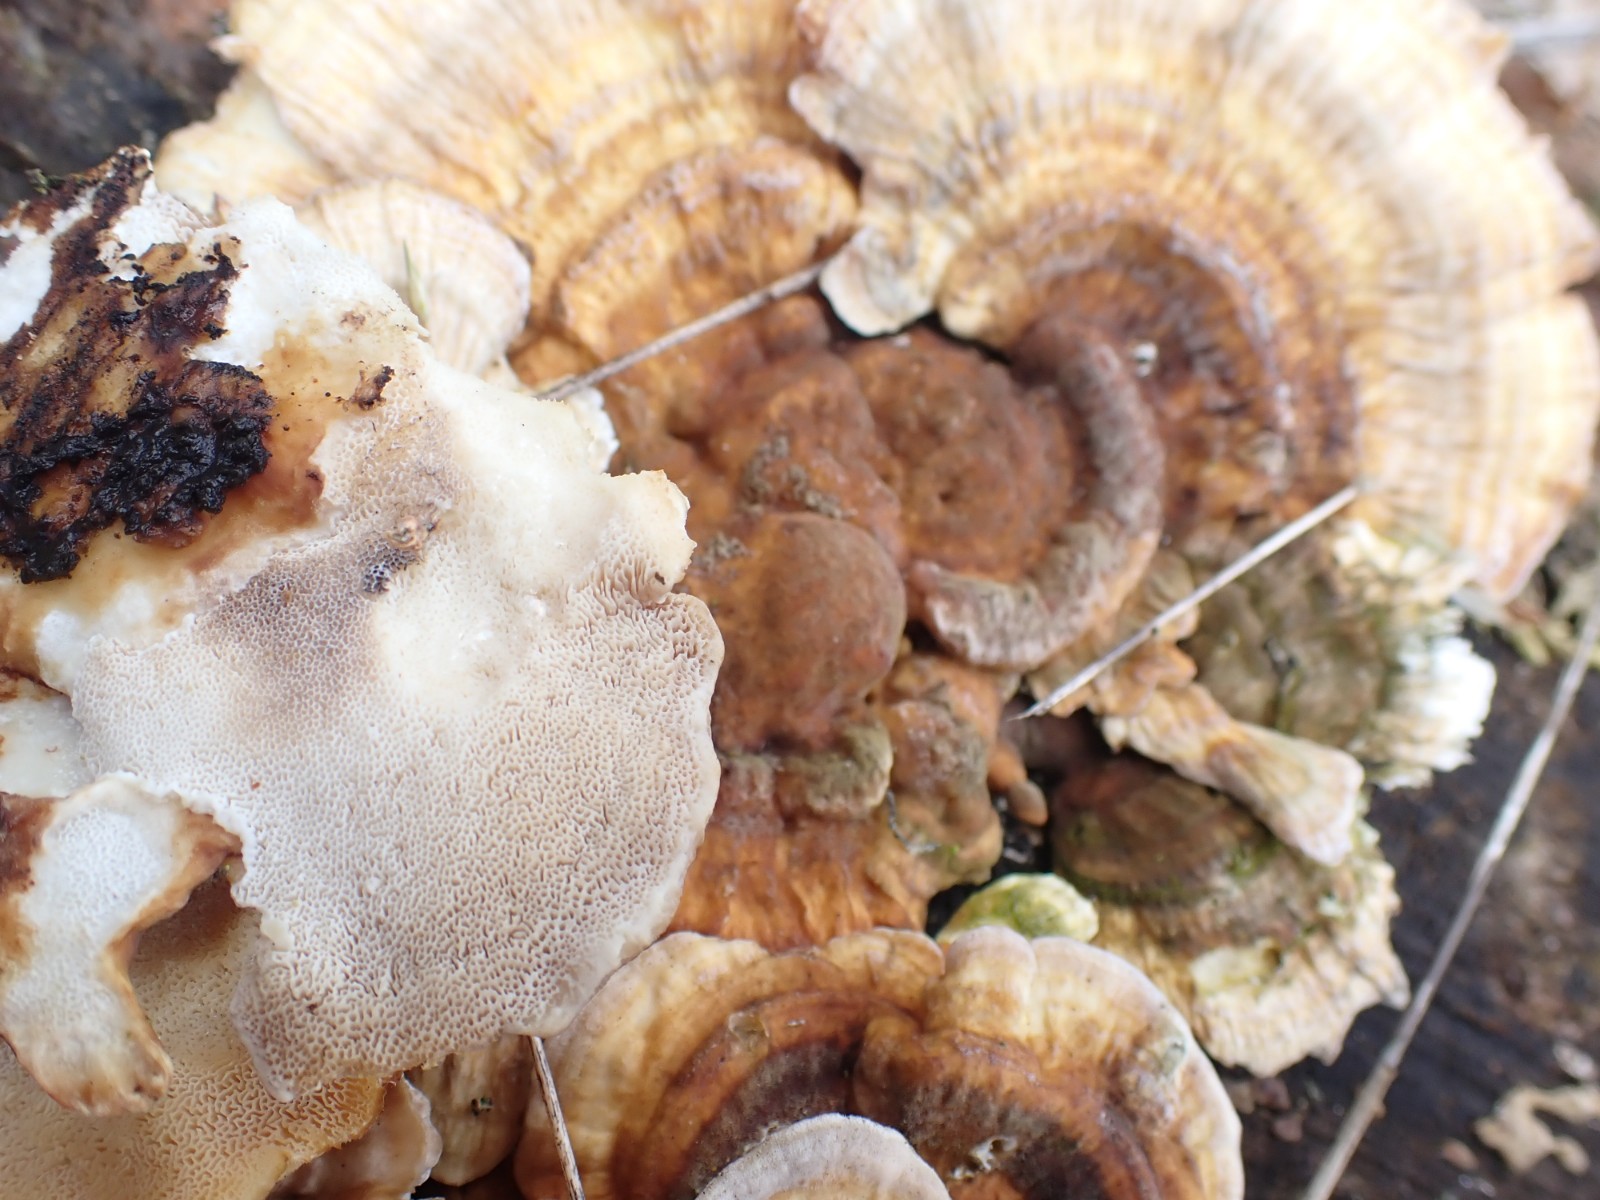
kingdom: Fungi
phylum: Basidiomycota
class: Agaricomycetes
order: Polyporales
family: Polyporaceae
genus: Trametes
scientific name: Trametes versicolor
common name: broget læderporesvamp
